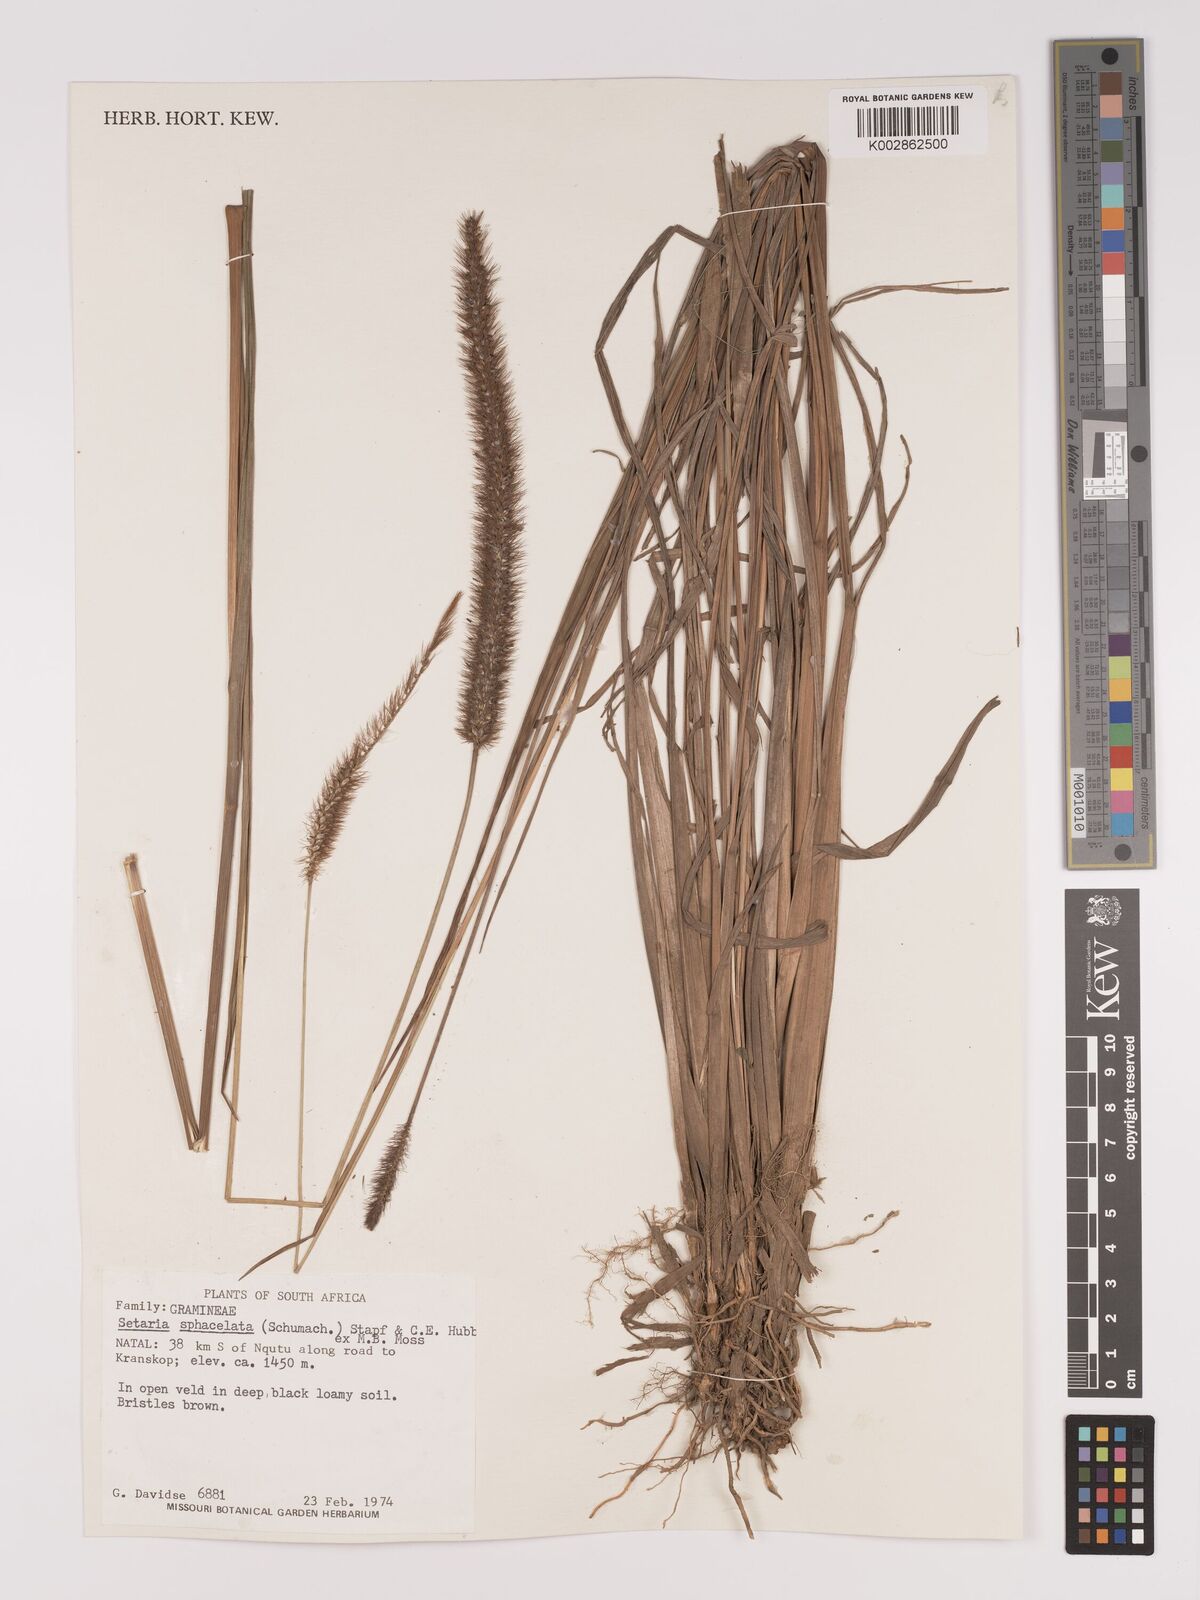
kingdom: Plantae
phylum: Tracheophyta
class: Liliopsida
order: Poales
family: Poaceae
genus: Setaria
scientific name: Setaria sphacelata
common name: African bristlegrass
